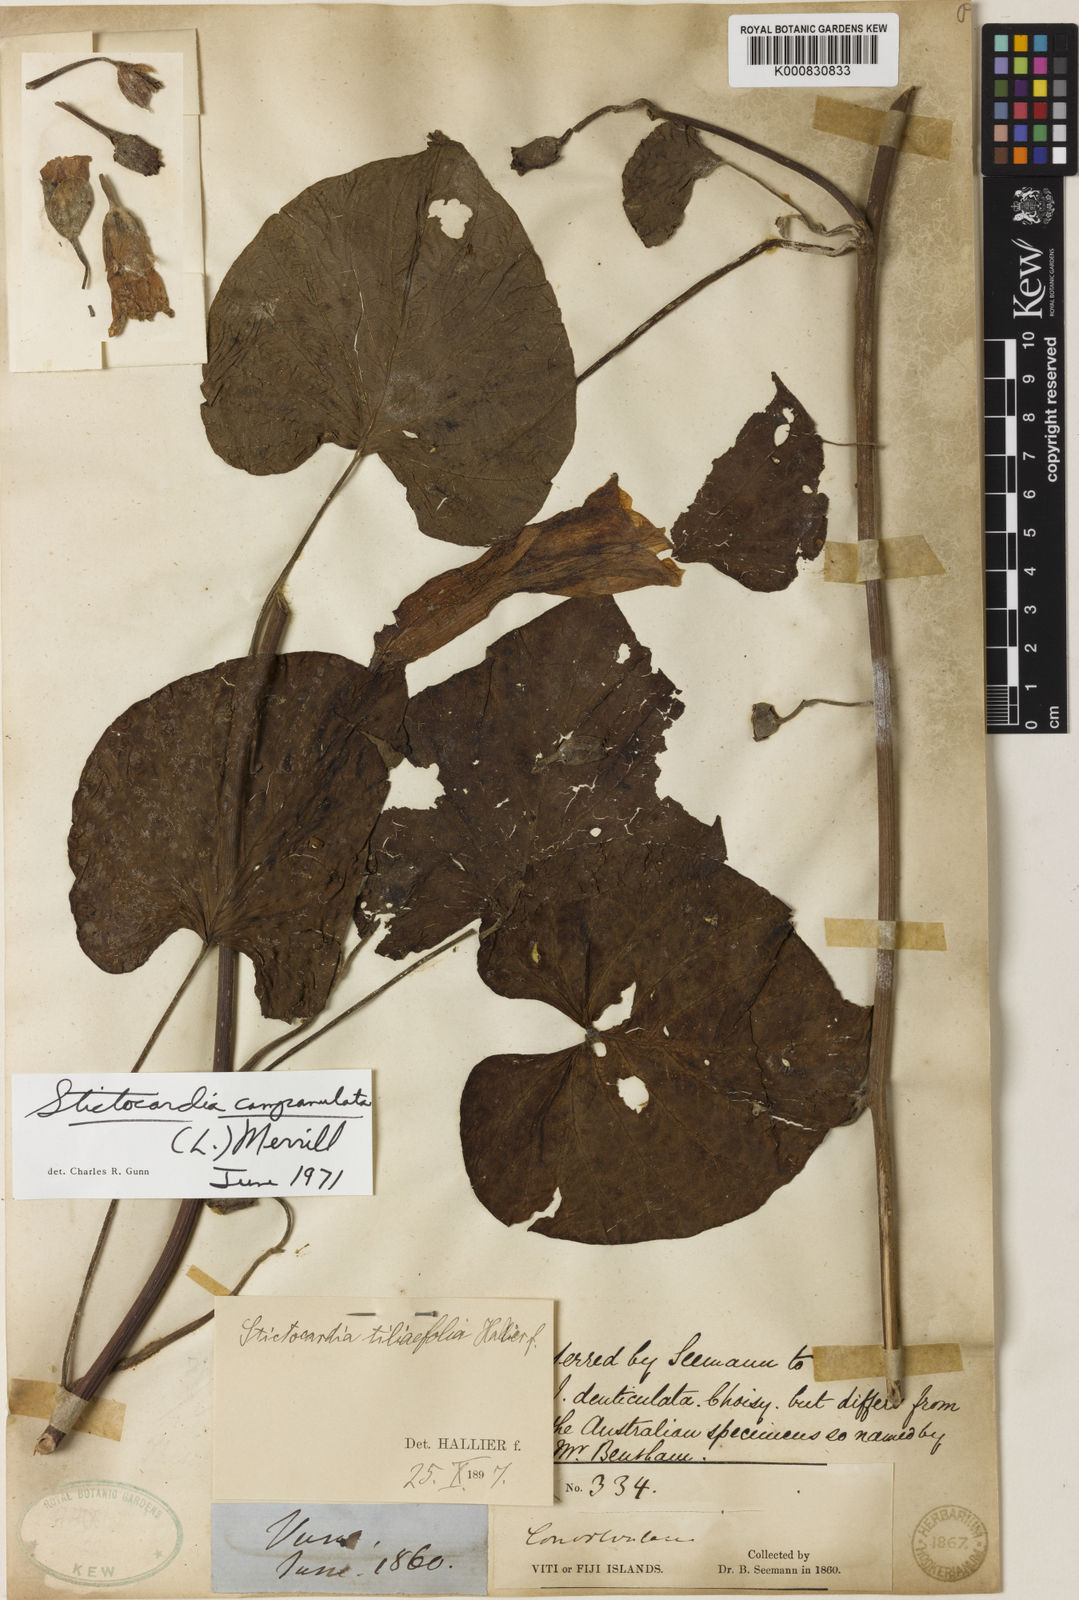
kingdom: Plantae
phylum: Tracheophyta
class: Magnoliopsida
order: Solanales
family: Convolvulaceae
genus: Ipomoea
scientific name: Ipomoea campanulata
